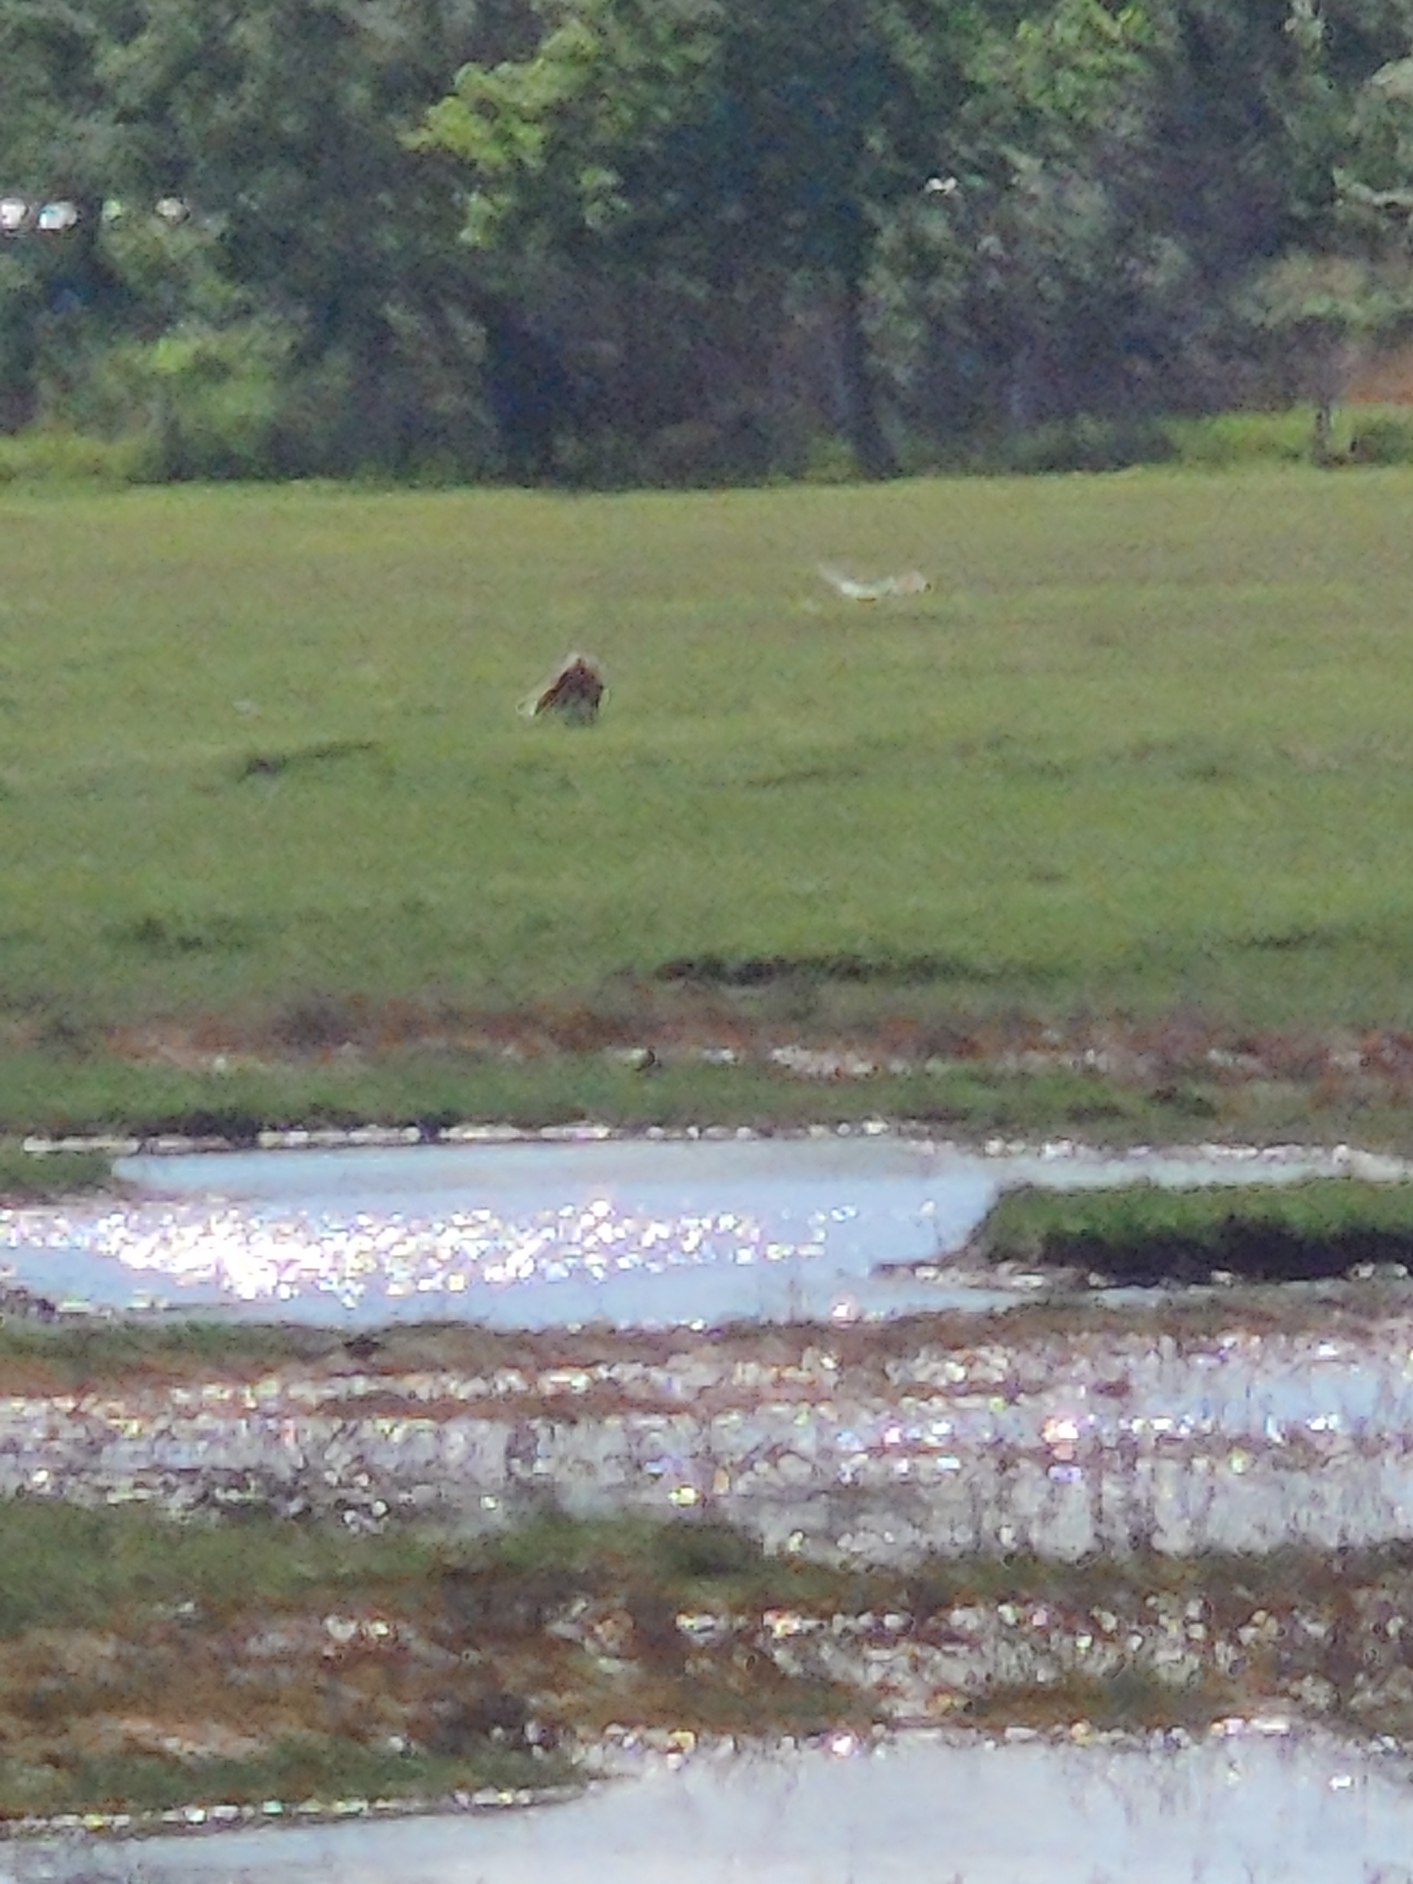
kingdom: Animalia
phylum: Chordata
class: Mammalia
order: Carnivora
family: Canidae
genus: Vulpes
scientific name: Vulpes vulpes
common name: Ræv
